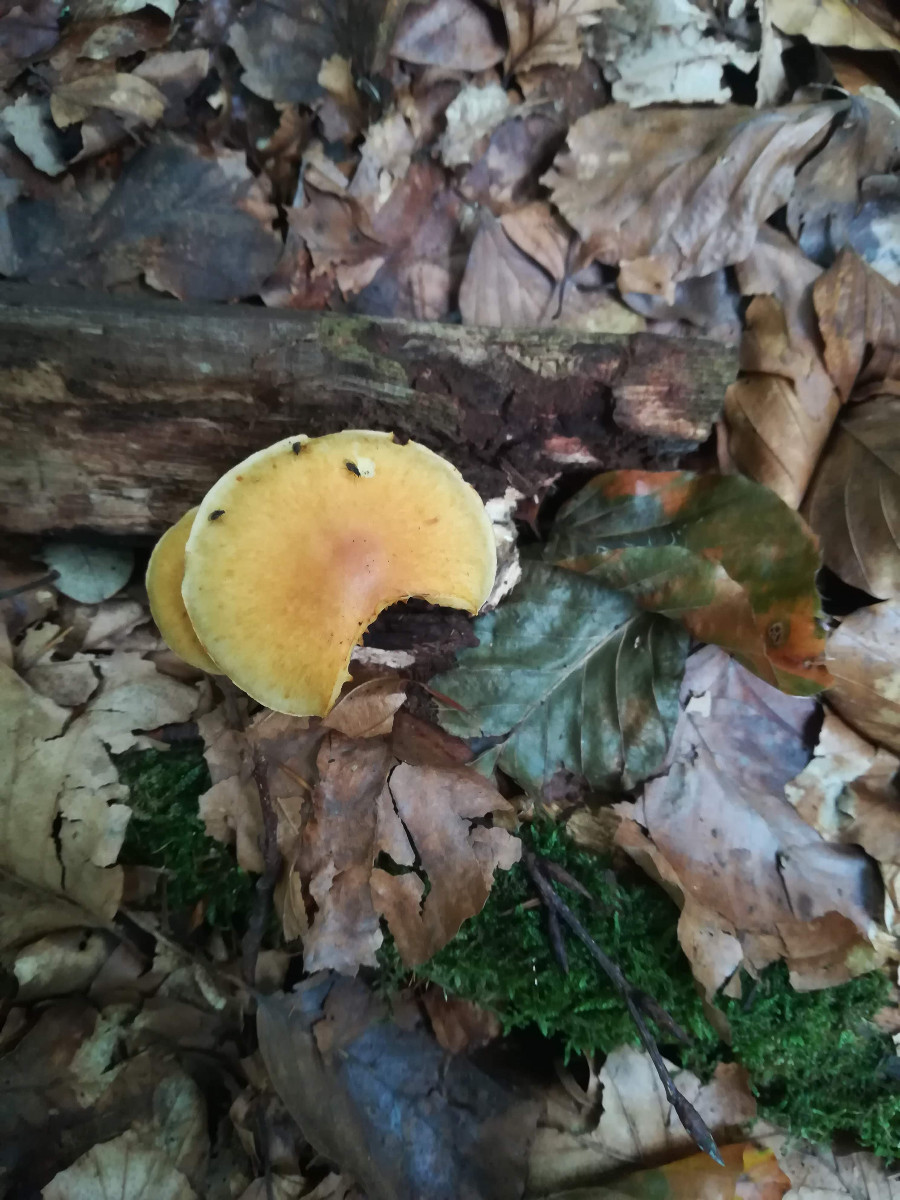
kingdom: Fungi
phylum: Basidiomycota
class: Agaricomycetes
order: Agaricales
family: Hymenogastraceae
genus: Gymnopilus
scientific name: Gymnopilus penetrans
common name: plettet flammehat
